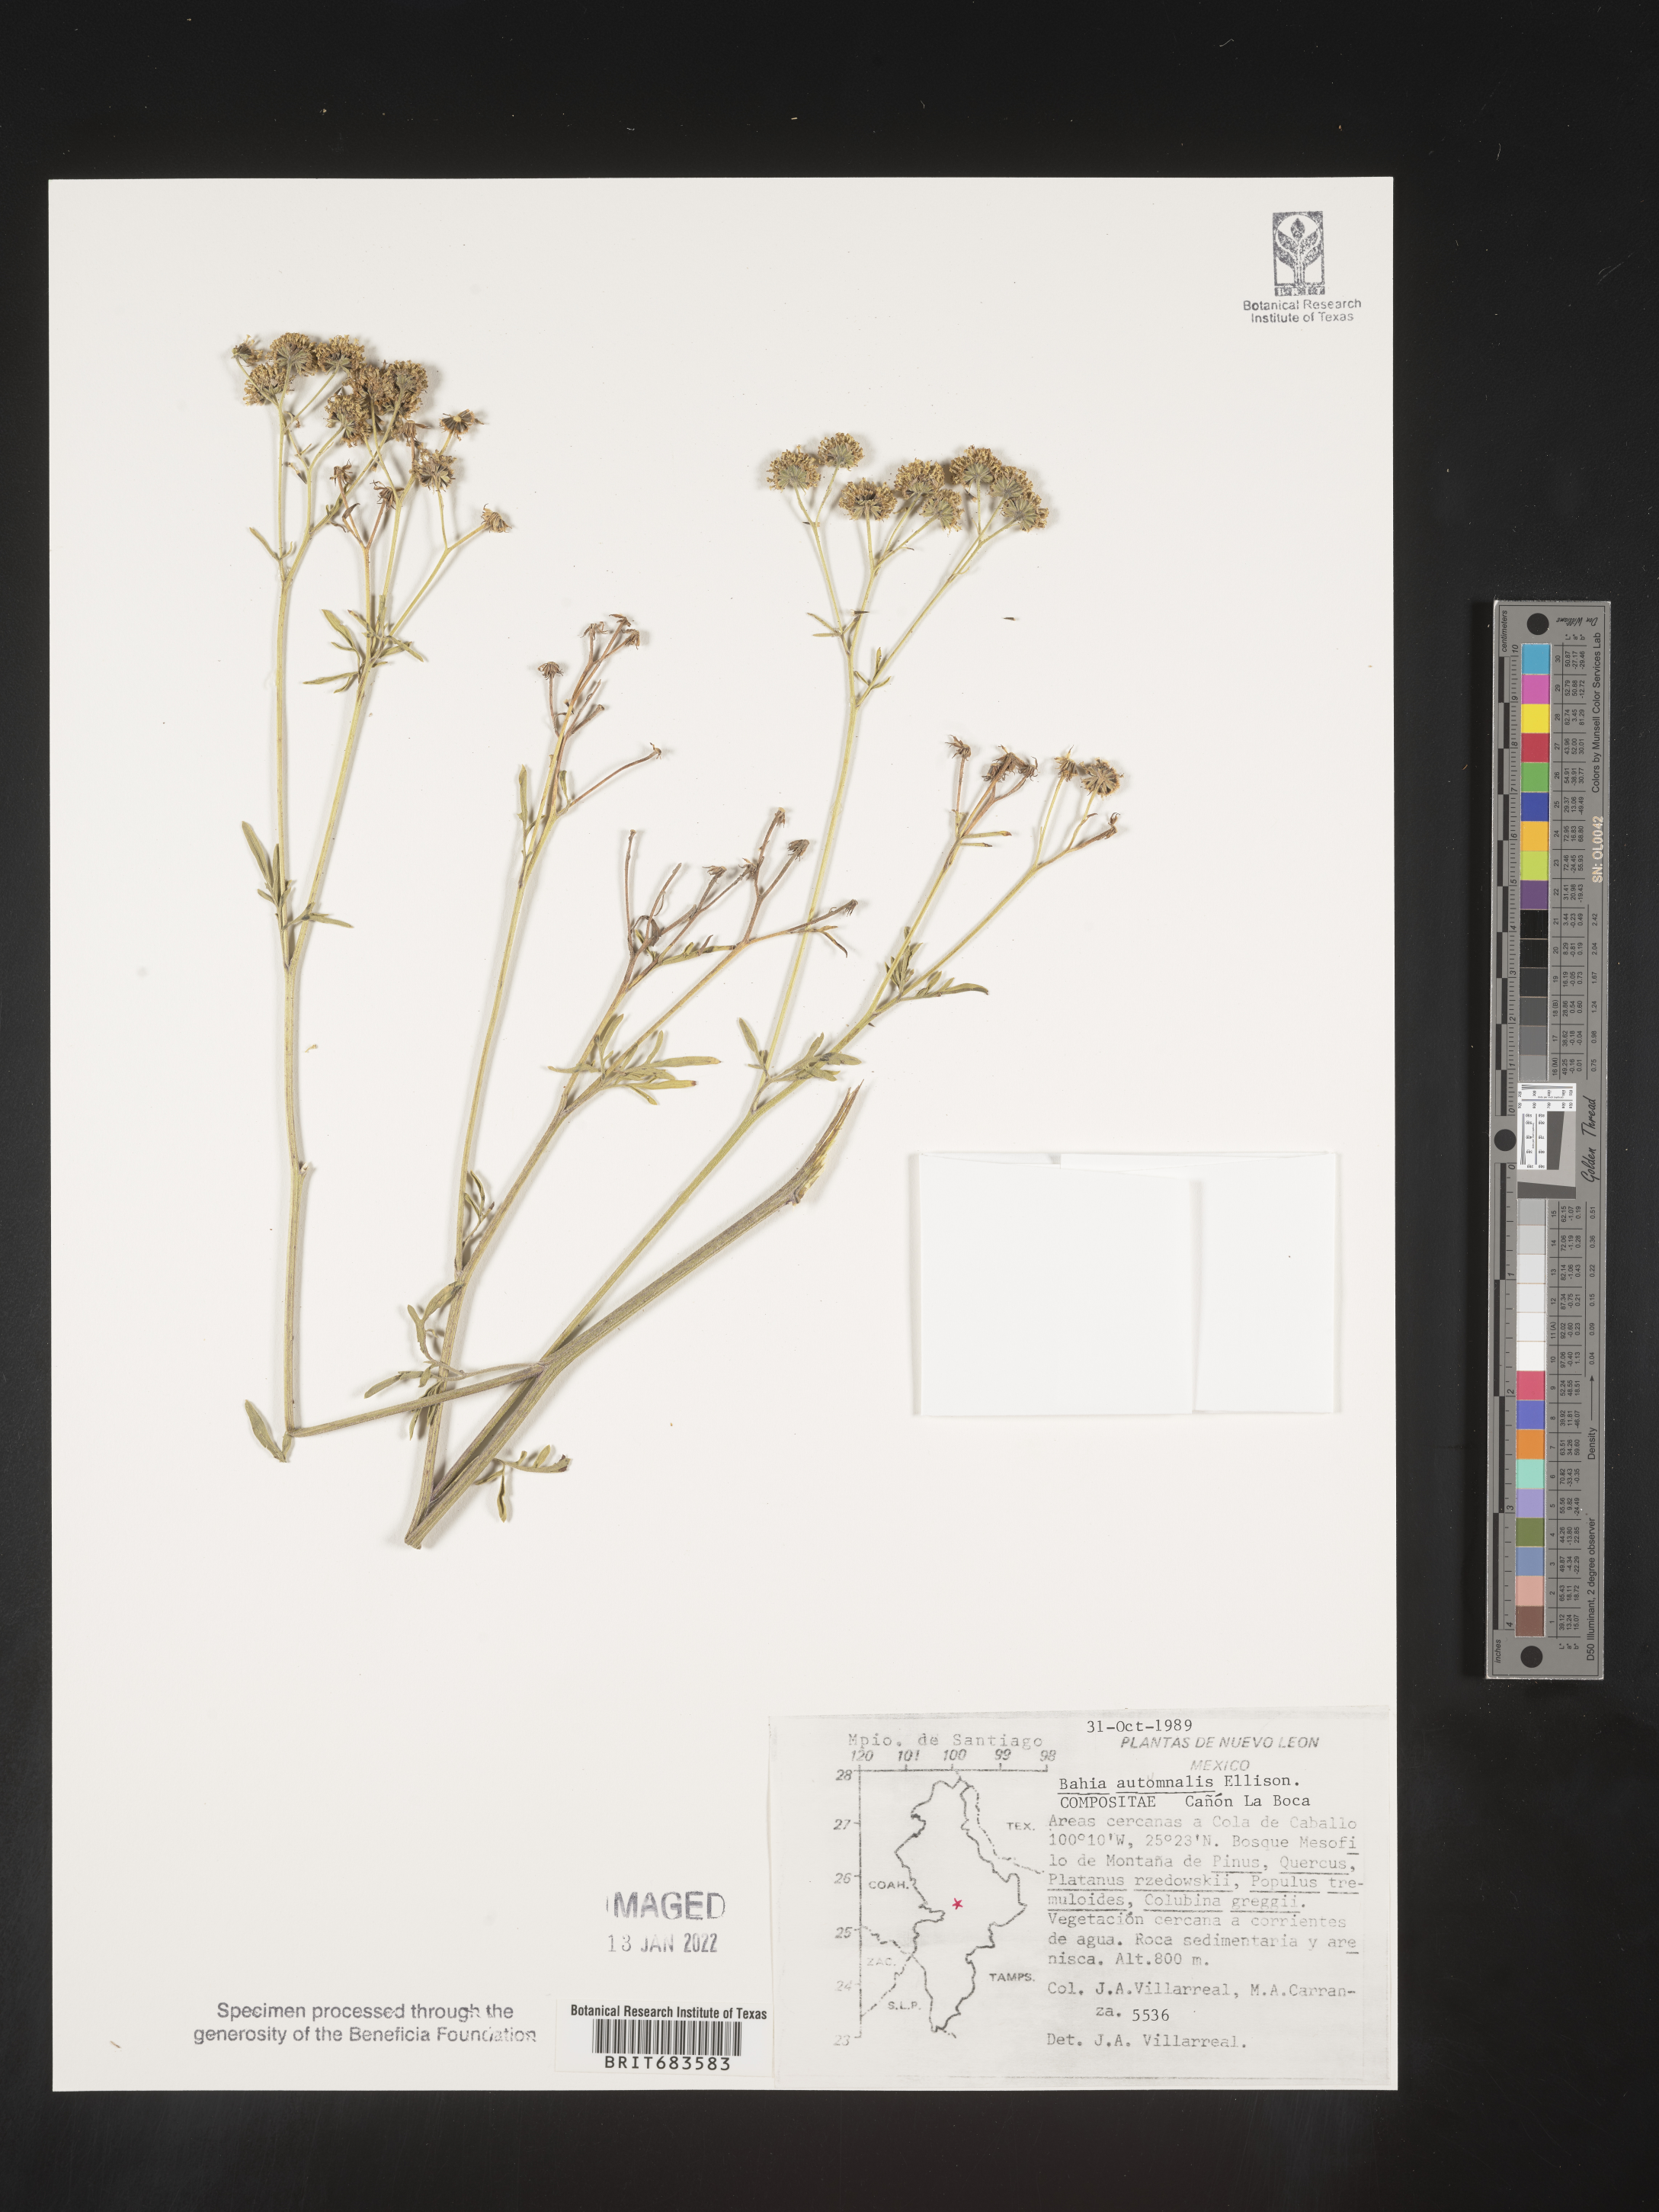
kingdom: Plantae
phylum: Tracheophyta
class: Magnoliopsida
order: Asterales
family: Asteraceae
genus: Bahia
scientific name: Bahia
